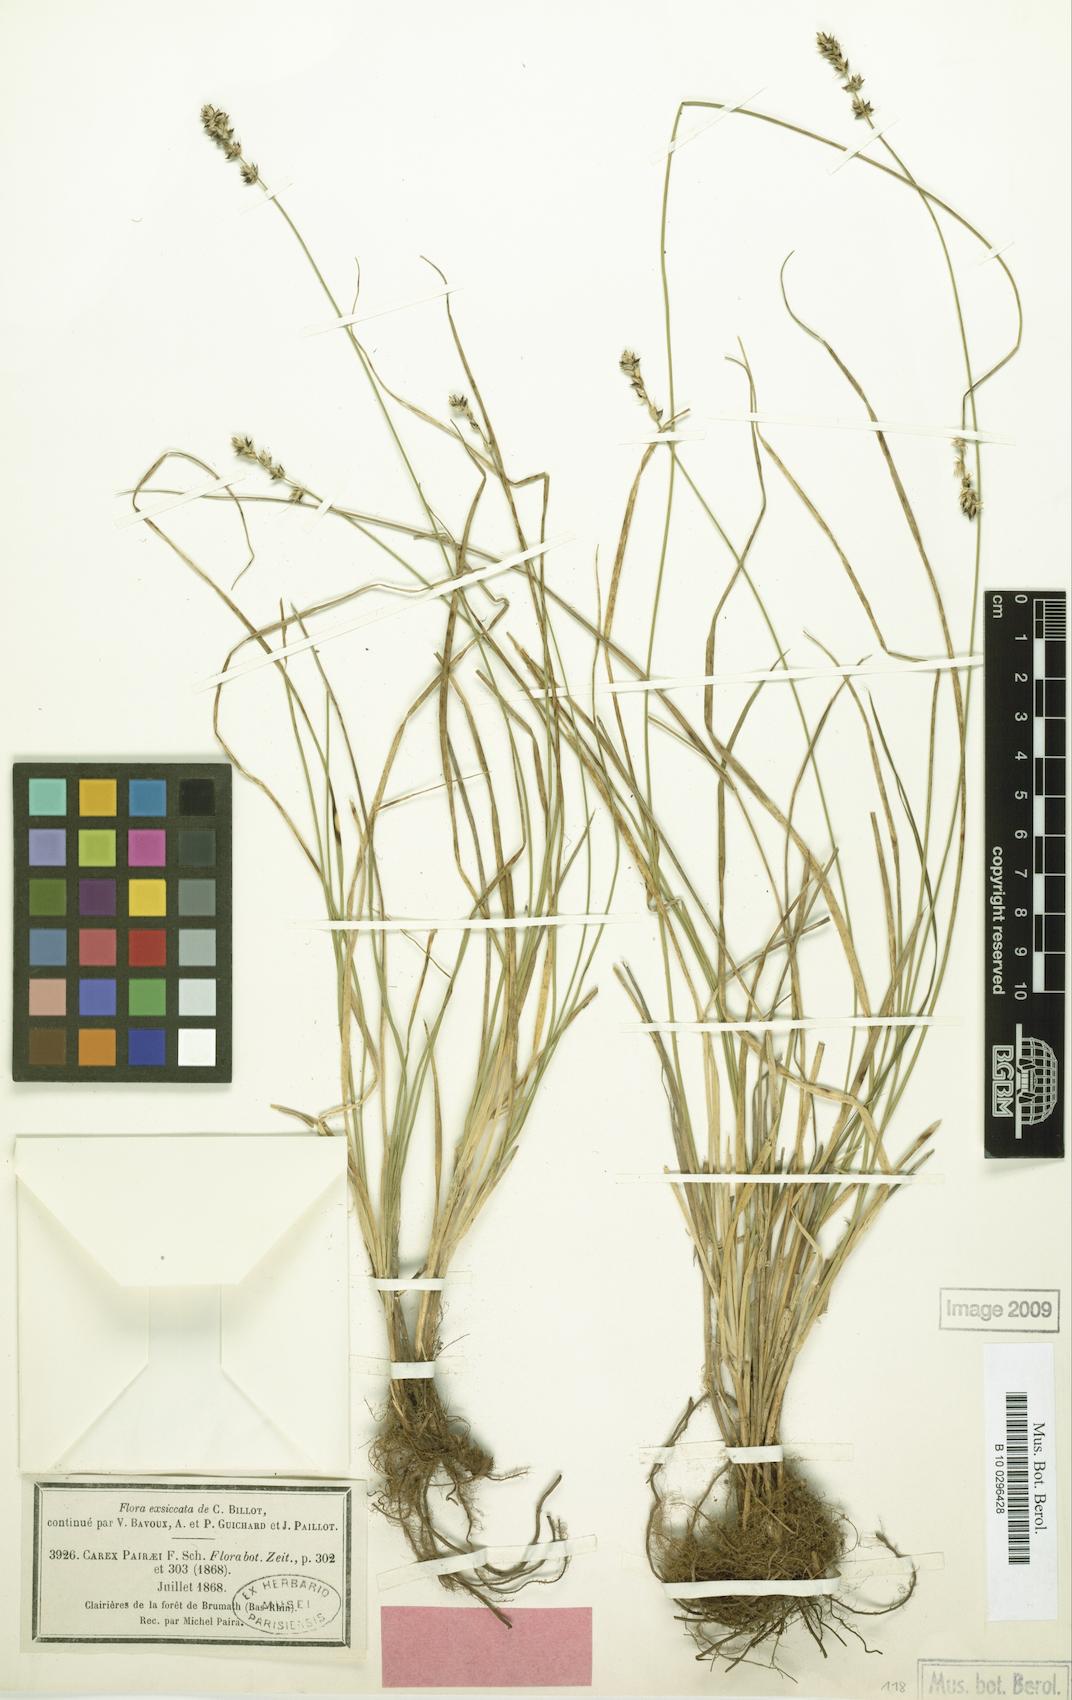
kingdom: Plantae
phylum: Tracheophyta
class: Liliopsida
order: Poales
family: Cyperaceae
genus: Carex
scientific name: Carex pairae
